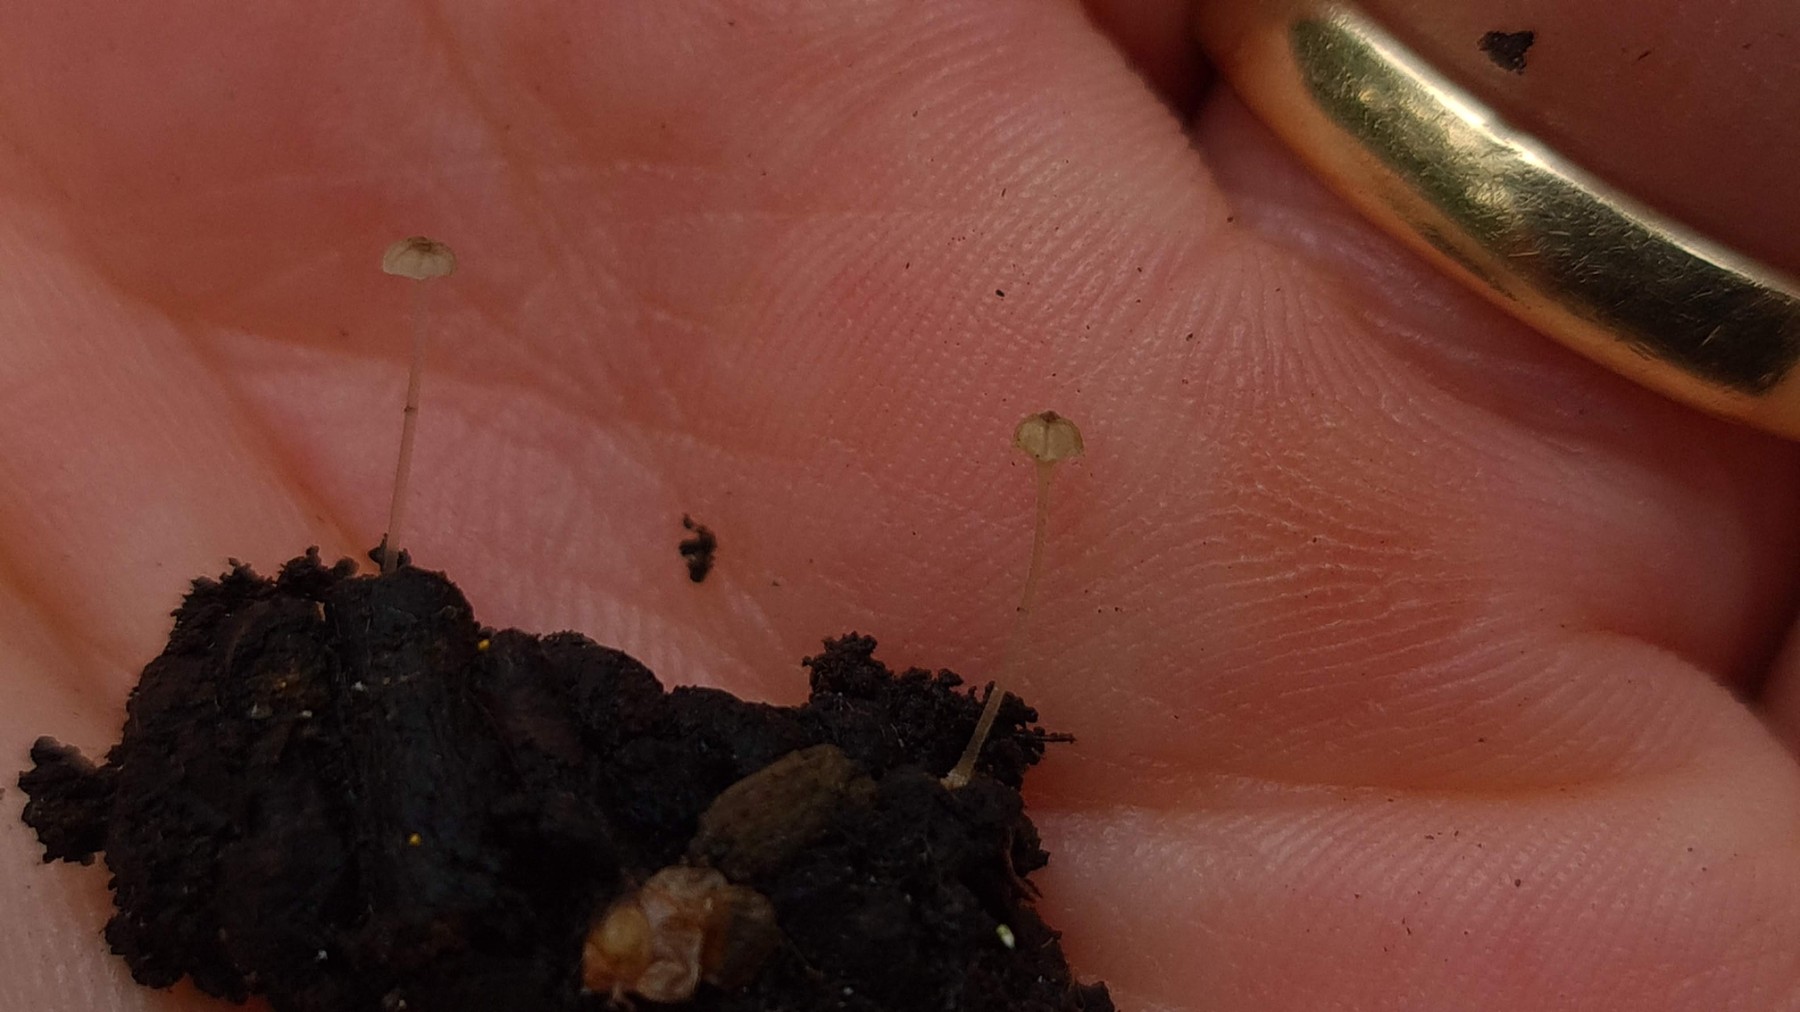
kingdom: Fungi
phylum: Basidiomycota
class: Agaricomycetes
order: Agaricales
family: Porotheleaceae
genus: Phloeomana
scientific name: Phloeomana speirea
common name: kvist-huesvamp
